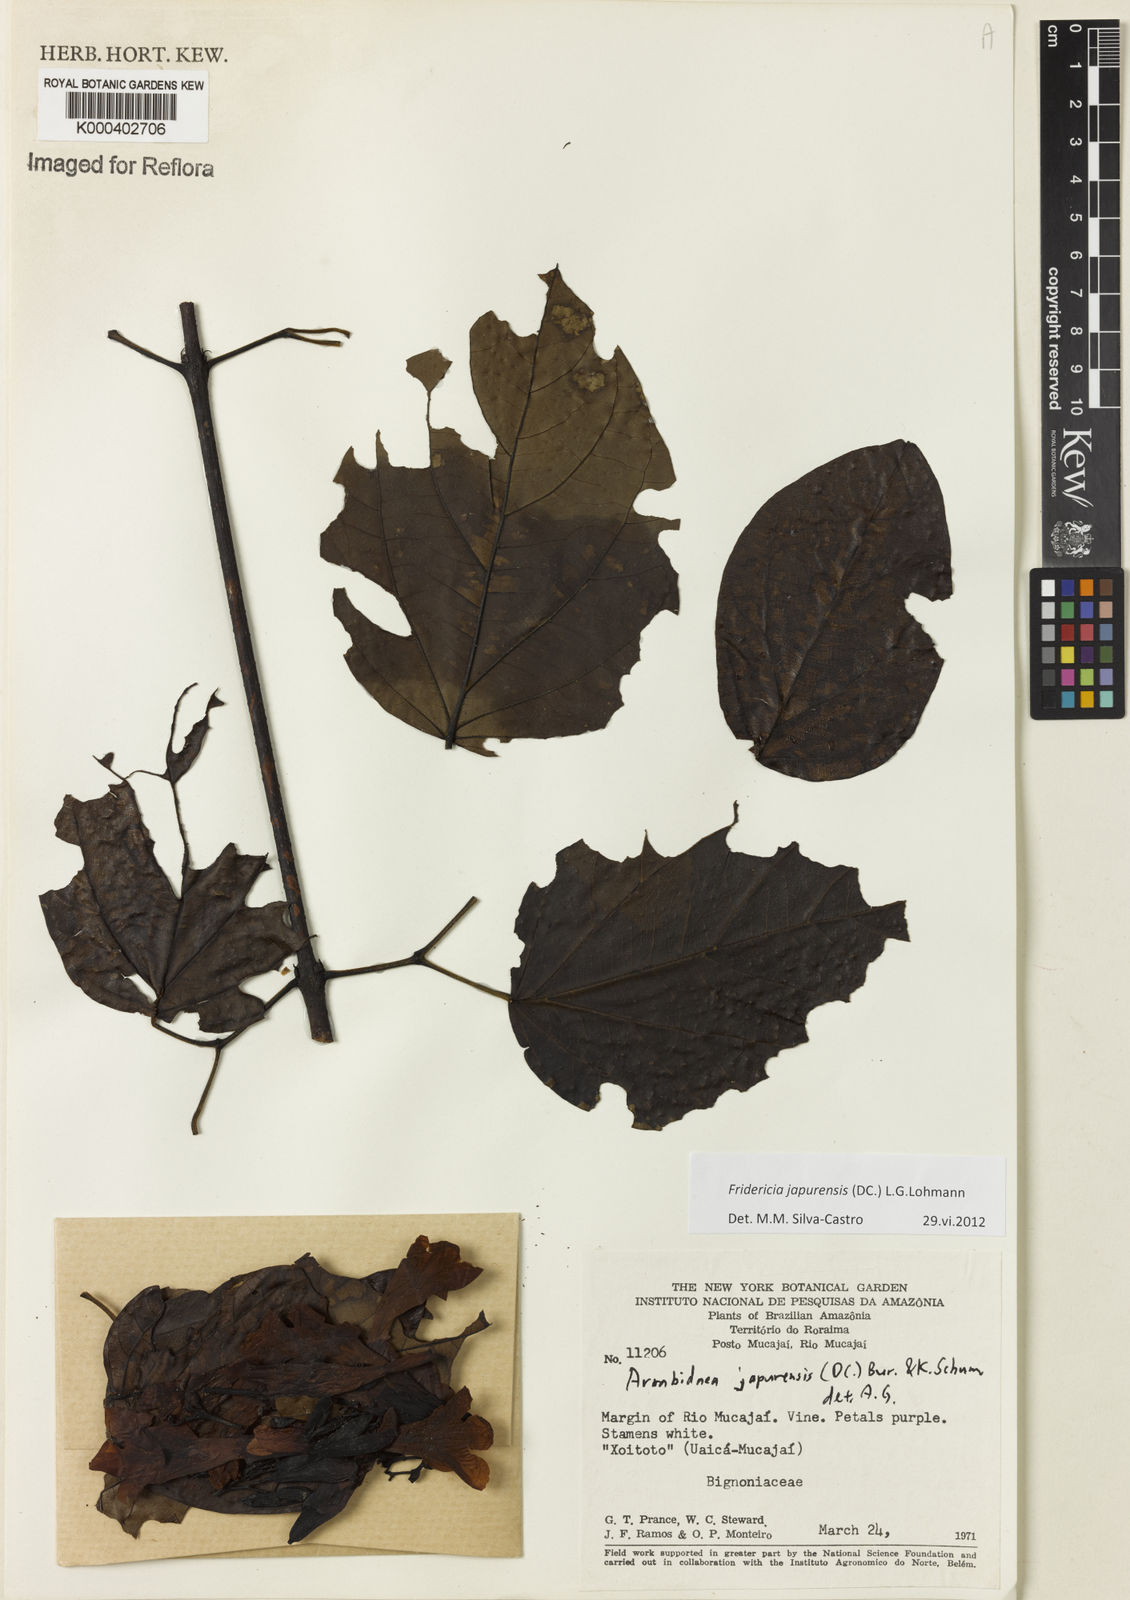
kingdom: Plantae
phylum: Tracheophyta
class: Magnoliopsida
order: Lamiales
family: Bignoniaceae
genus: Fridericia
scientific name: Fridericia japurensis
